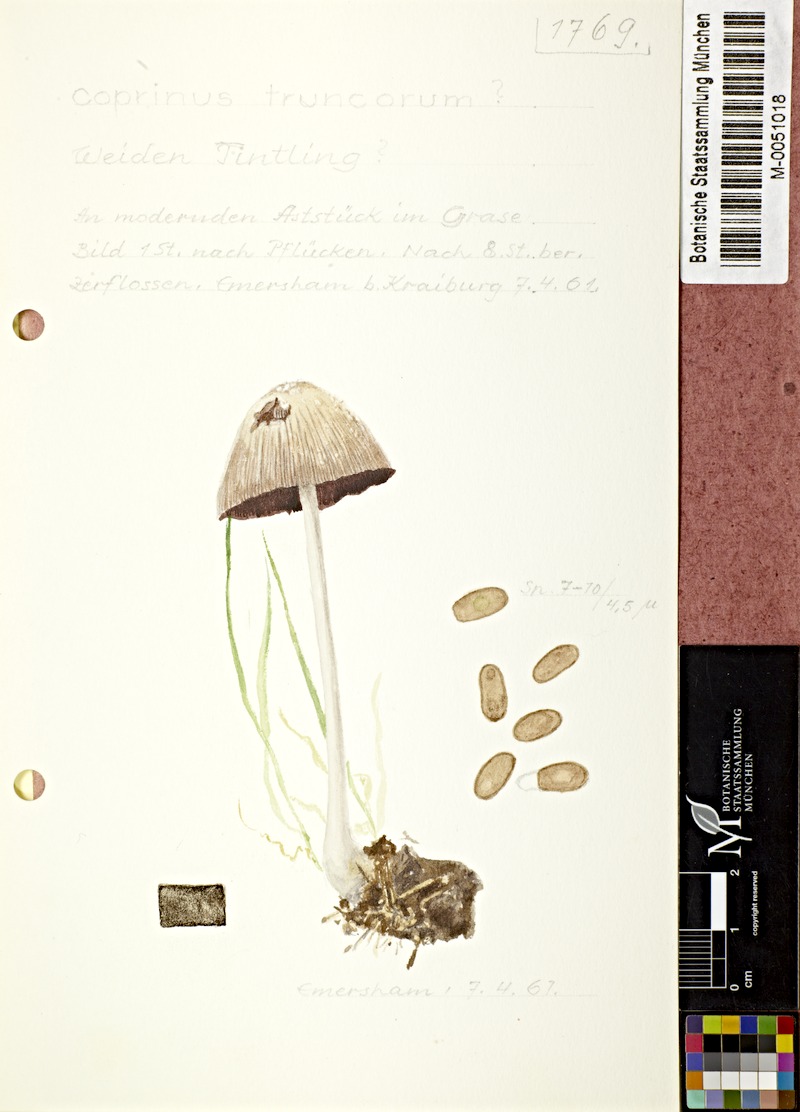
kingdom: Fungi
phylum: Basidiomycota
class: Agaricomycetes
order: Agaricales
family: Psathyrellaceae
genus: Coprinellus
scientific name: Coprinellus truncorum
